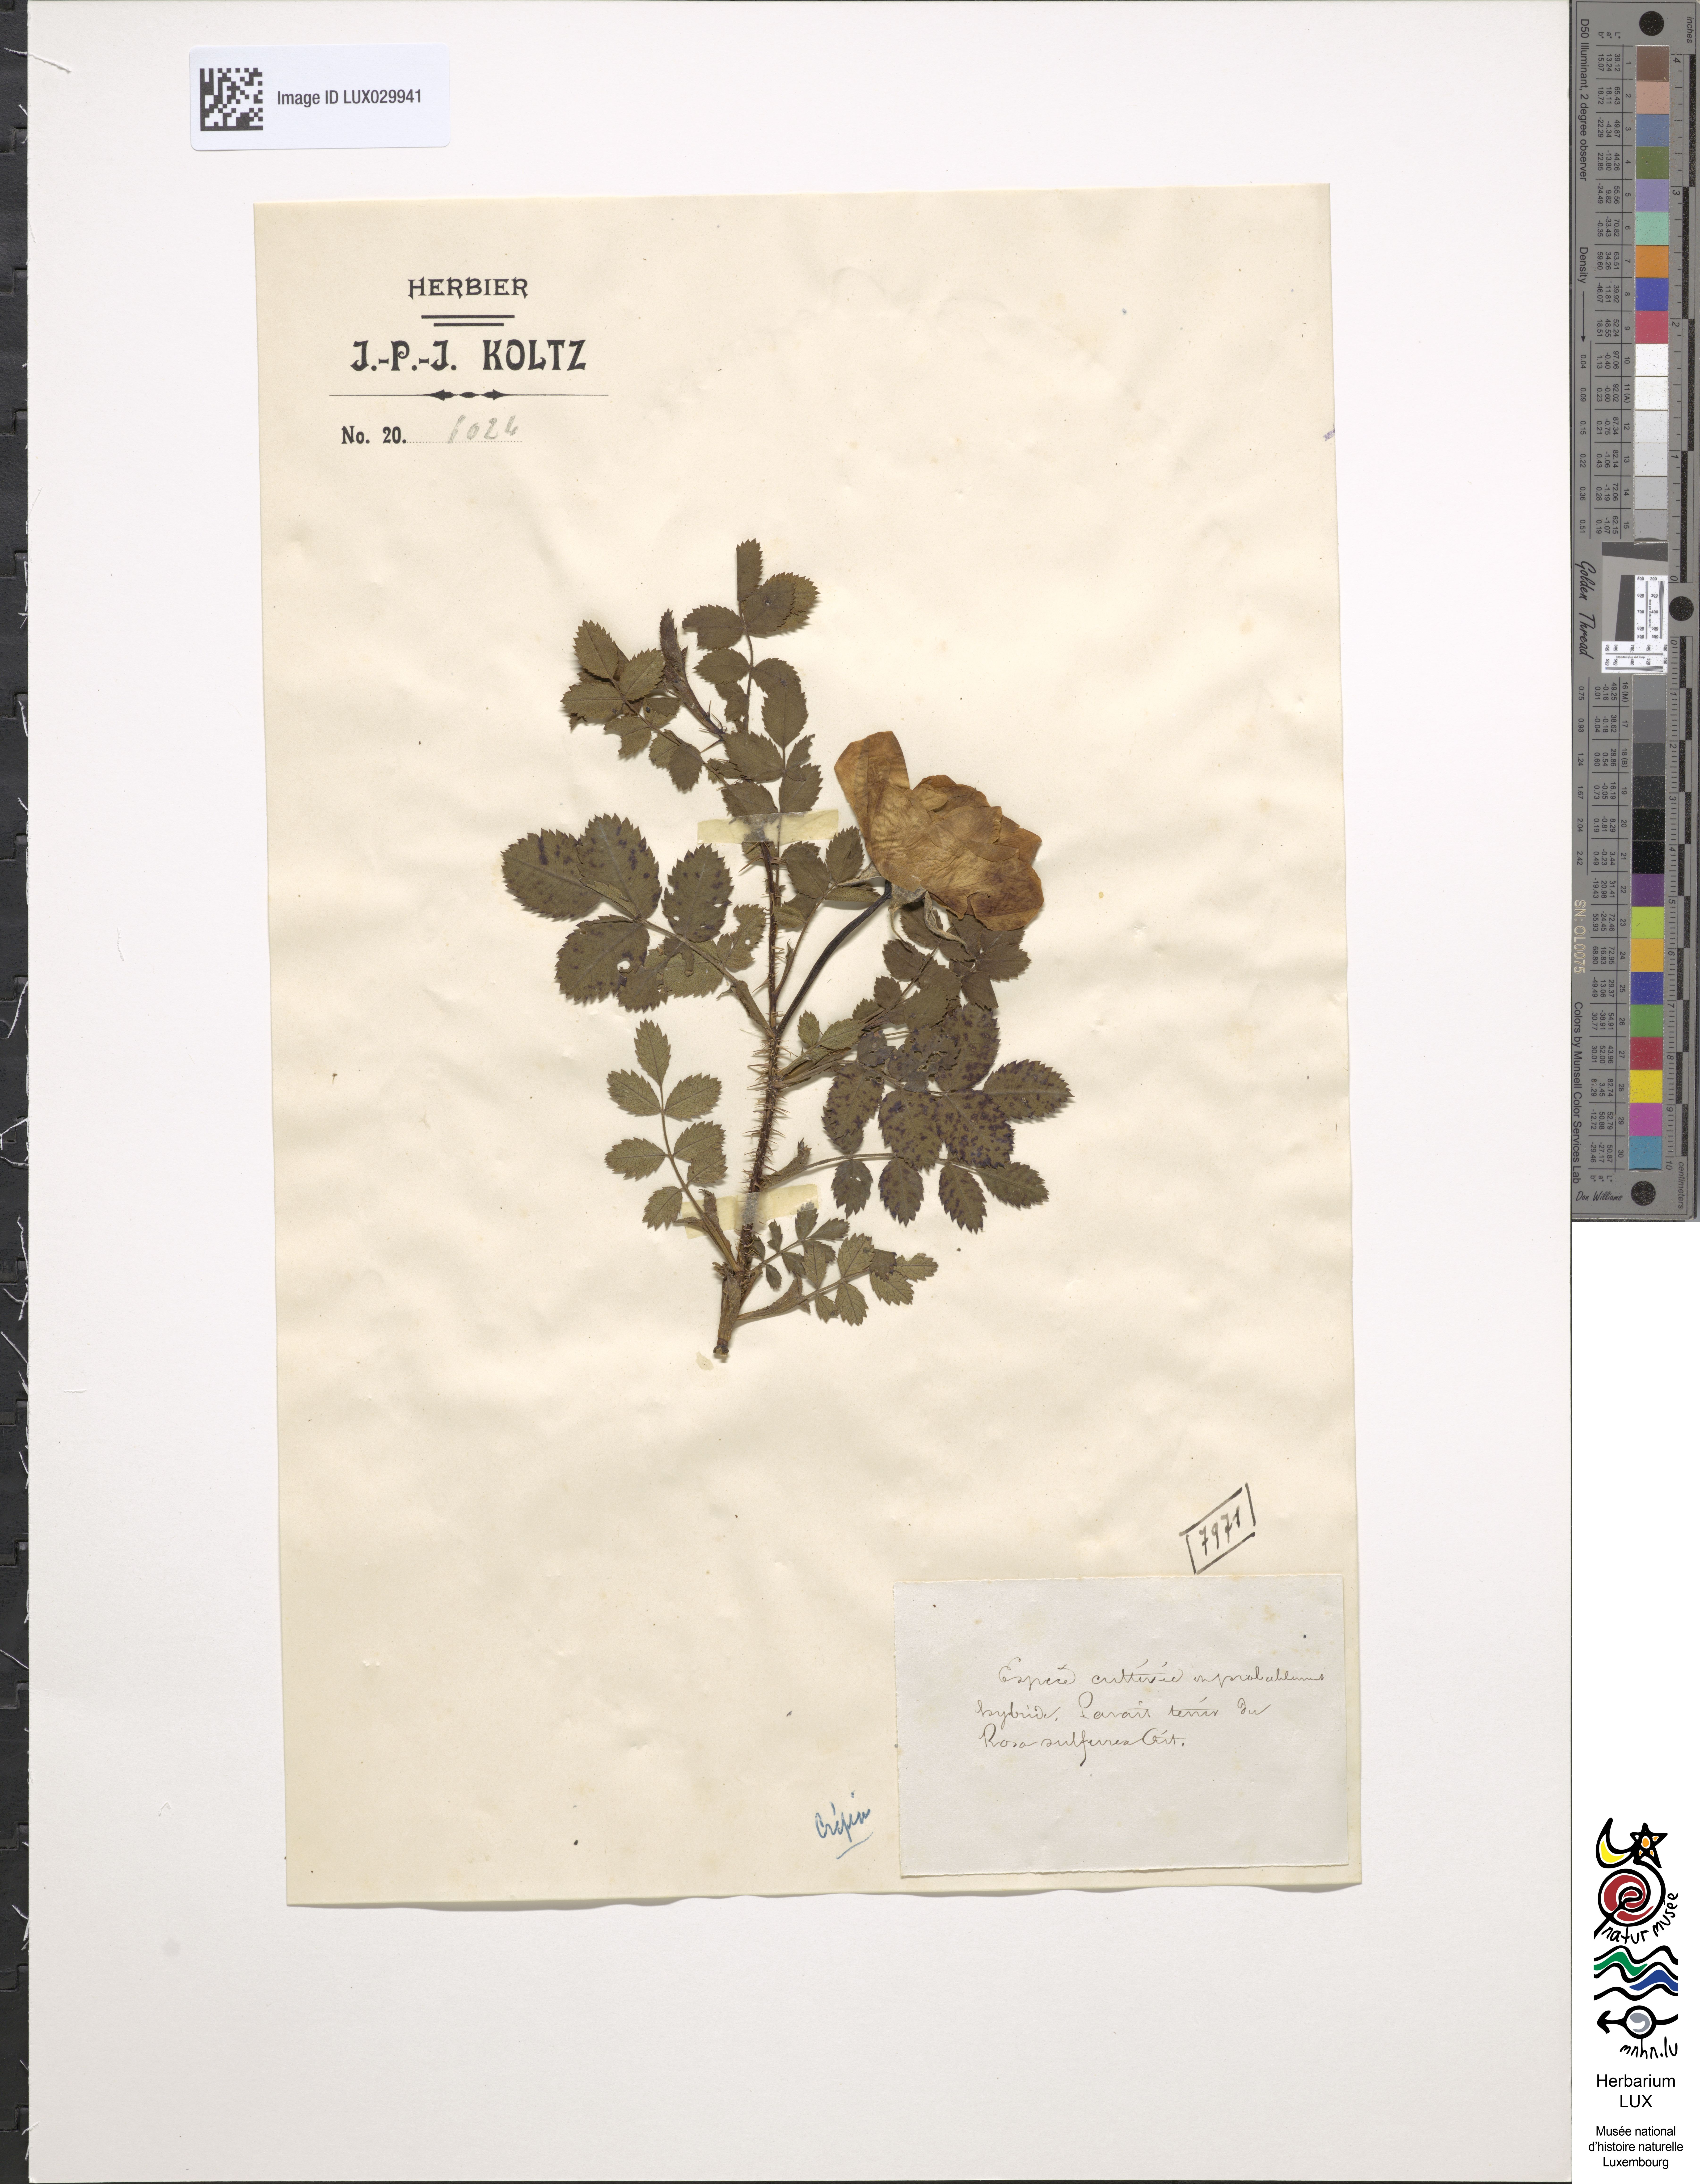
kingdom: Plantae
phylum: Tracheophyta
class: Magnoliopsida
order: Rosales
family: Rosaceae
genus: Rosa
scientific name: Rosa hemisphaerica
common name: Sulphur rose
